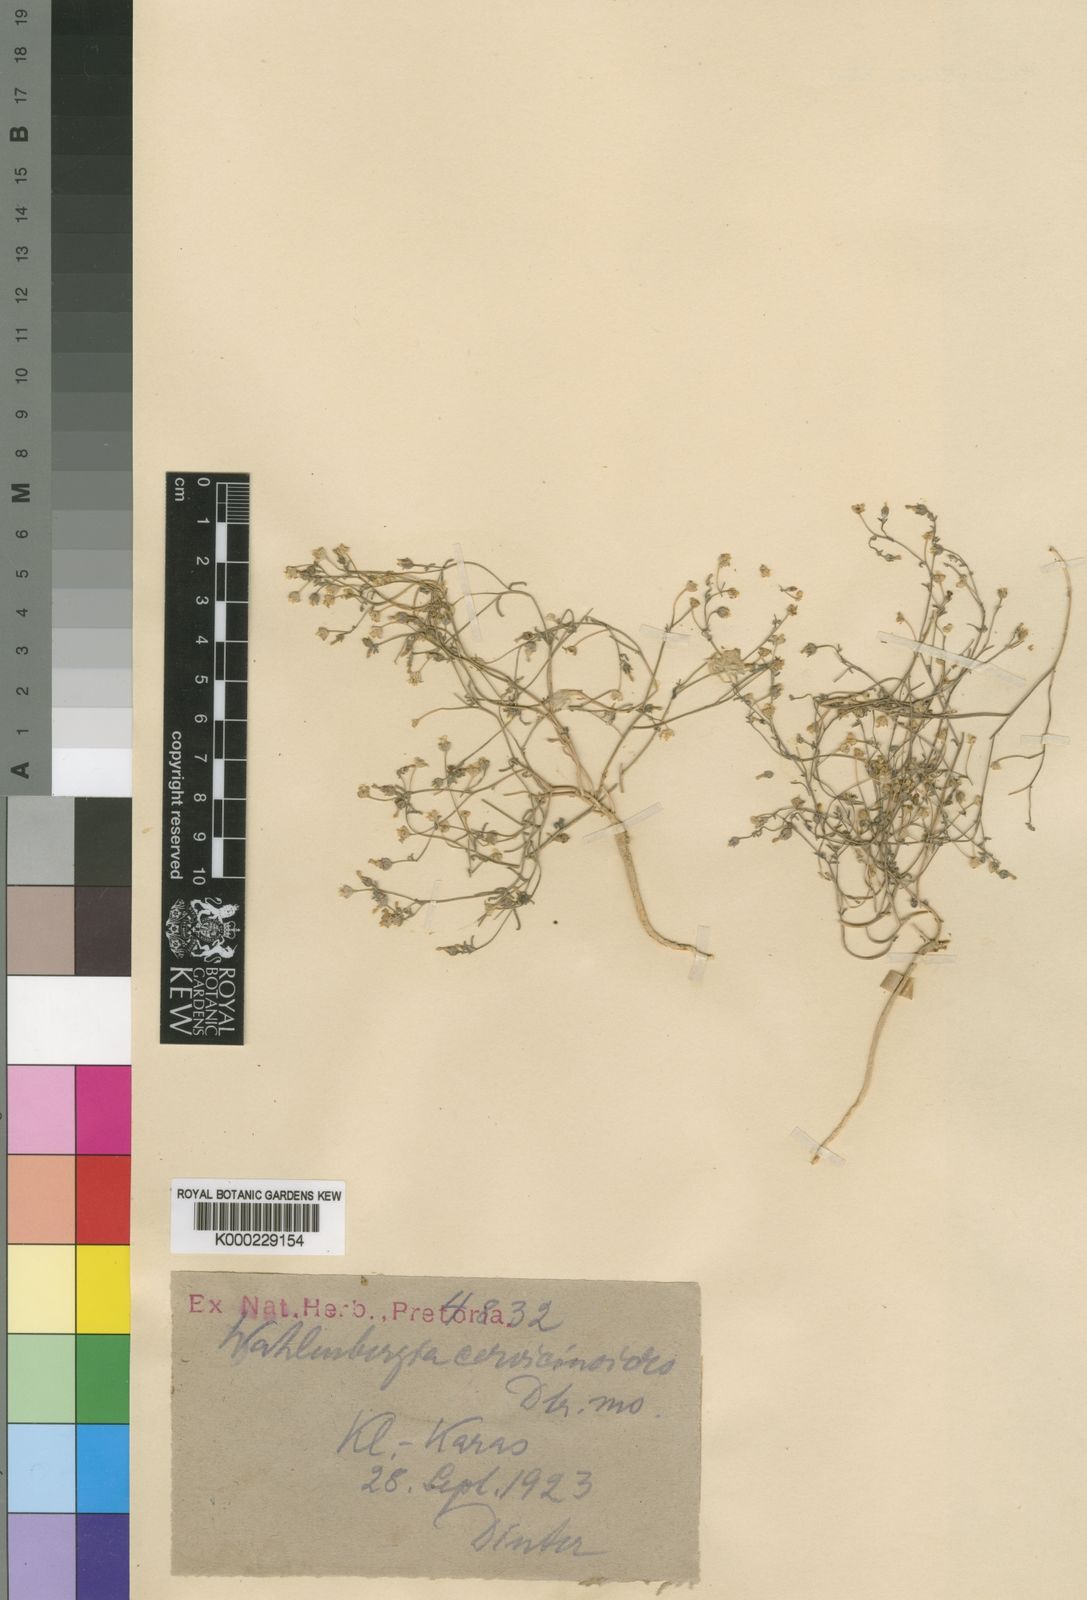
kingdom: Plantae
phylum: Tracheophyta
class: Magnoliopsida
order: Asterales
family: Campanulaceae
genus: Wahlenbergia
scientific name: Wahlenbergia
